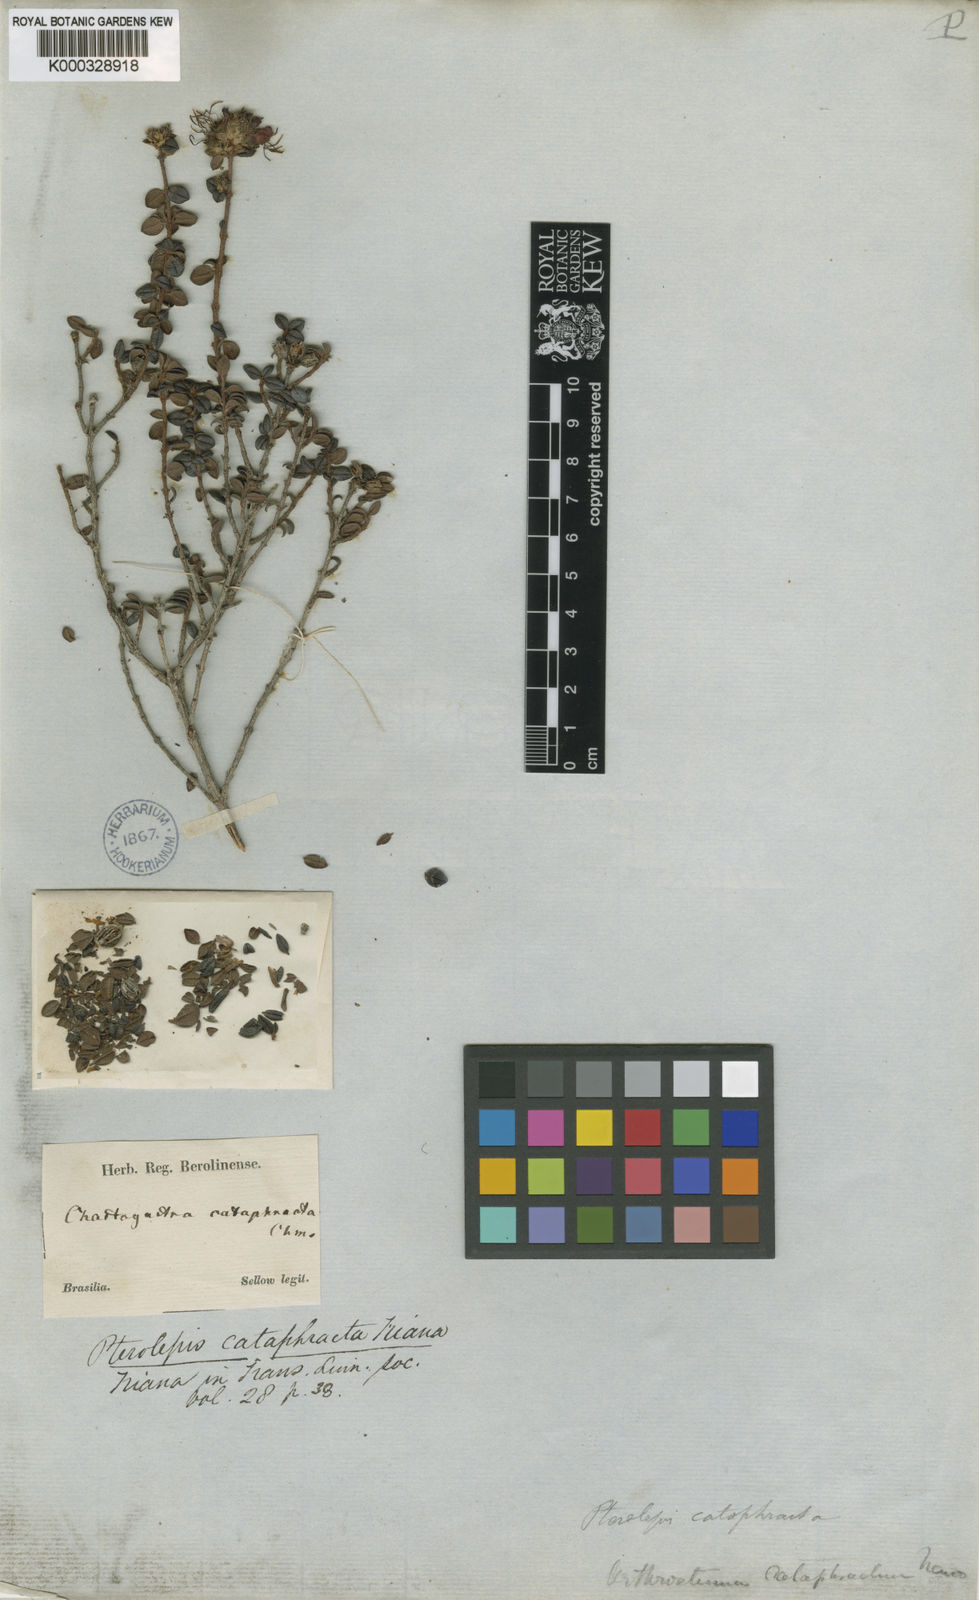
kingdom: Plantae
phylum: Tracheophyta
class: Magnoliopsida
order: Myrtales
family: Melastomataceae
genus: Pterolepis
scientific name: Pterolepis cataphracta
